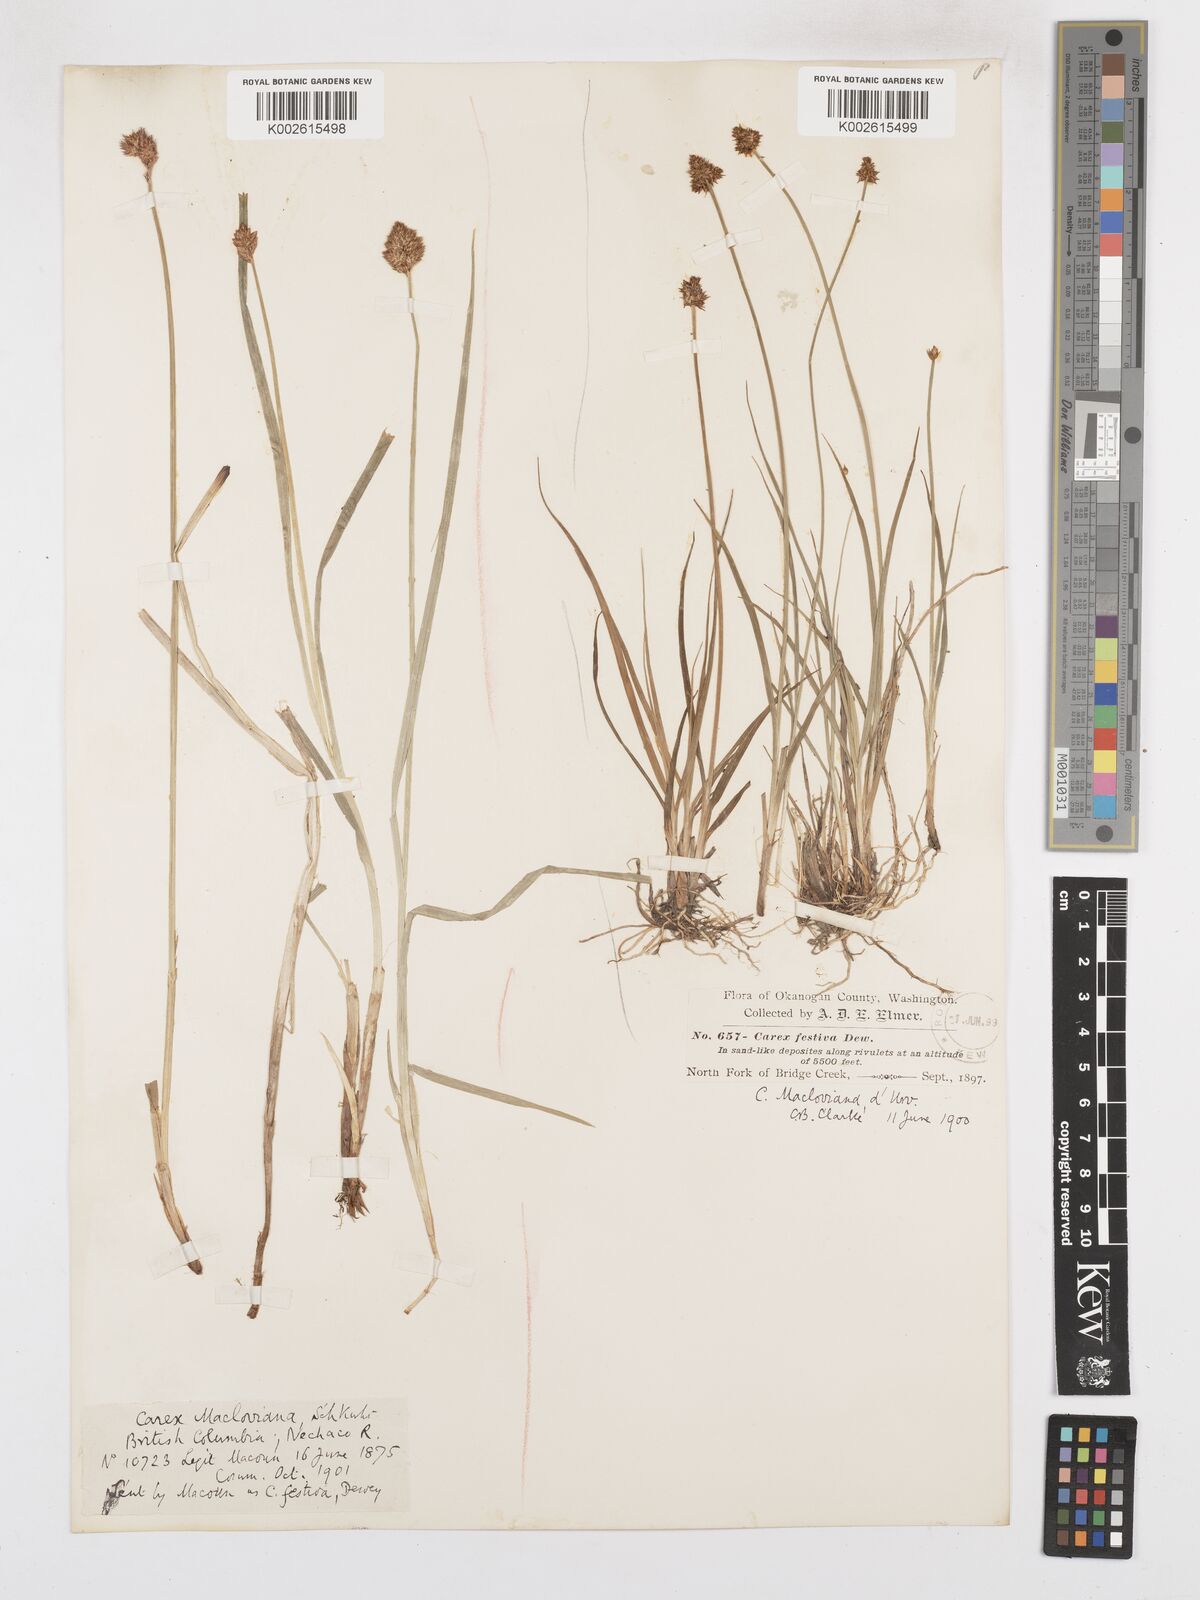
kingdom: Plantae
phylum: Tracheophyta
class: Liliopsida
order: Poales
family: Cyperaceae
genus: Carex
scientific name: Carex macloviana
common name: Falkland island sedge
